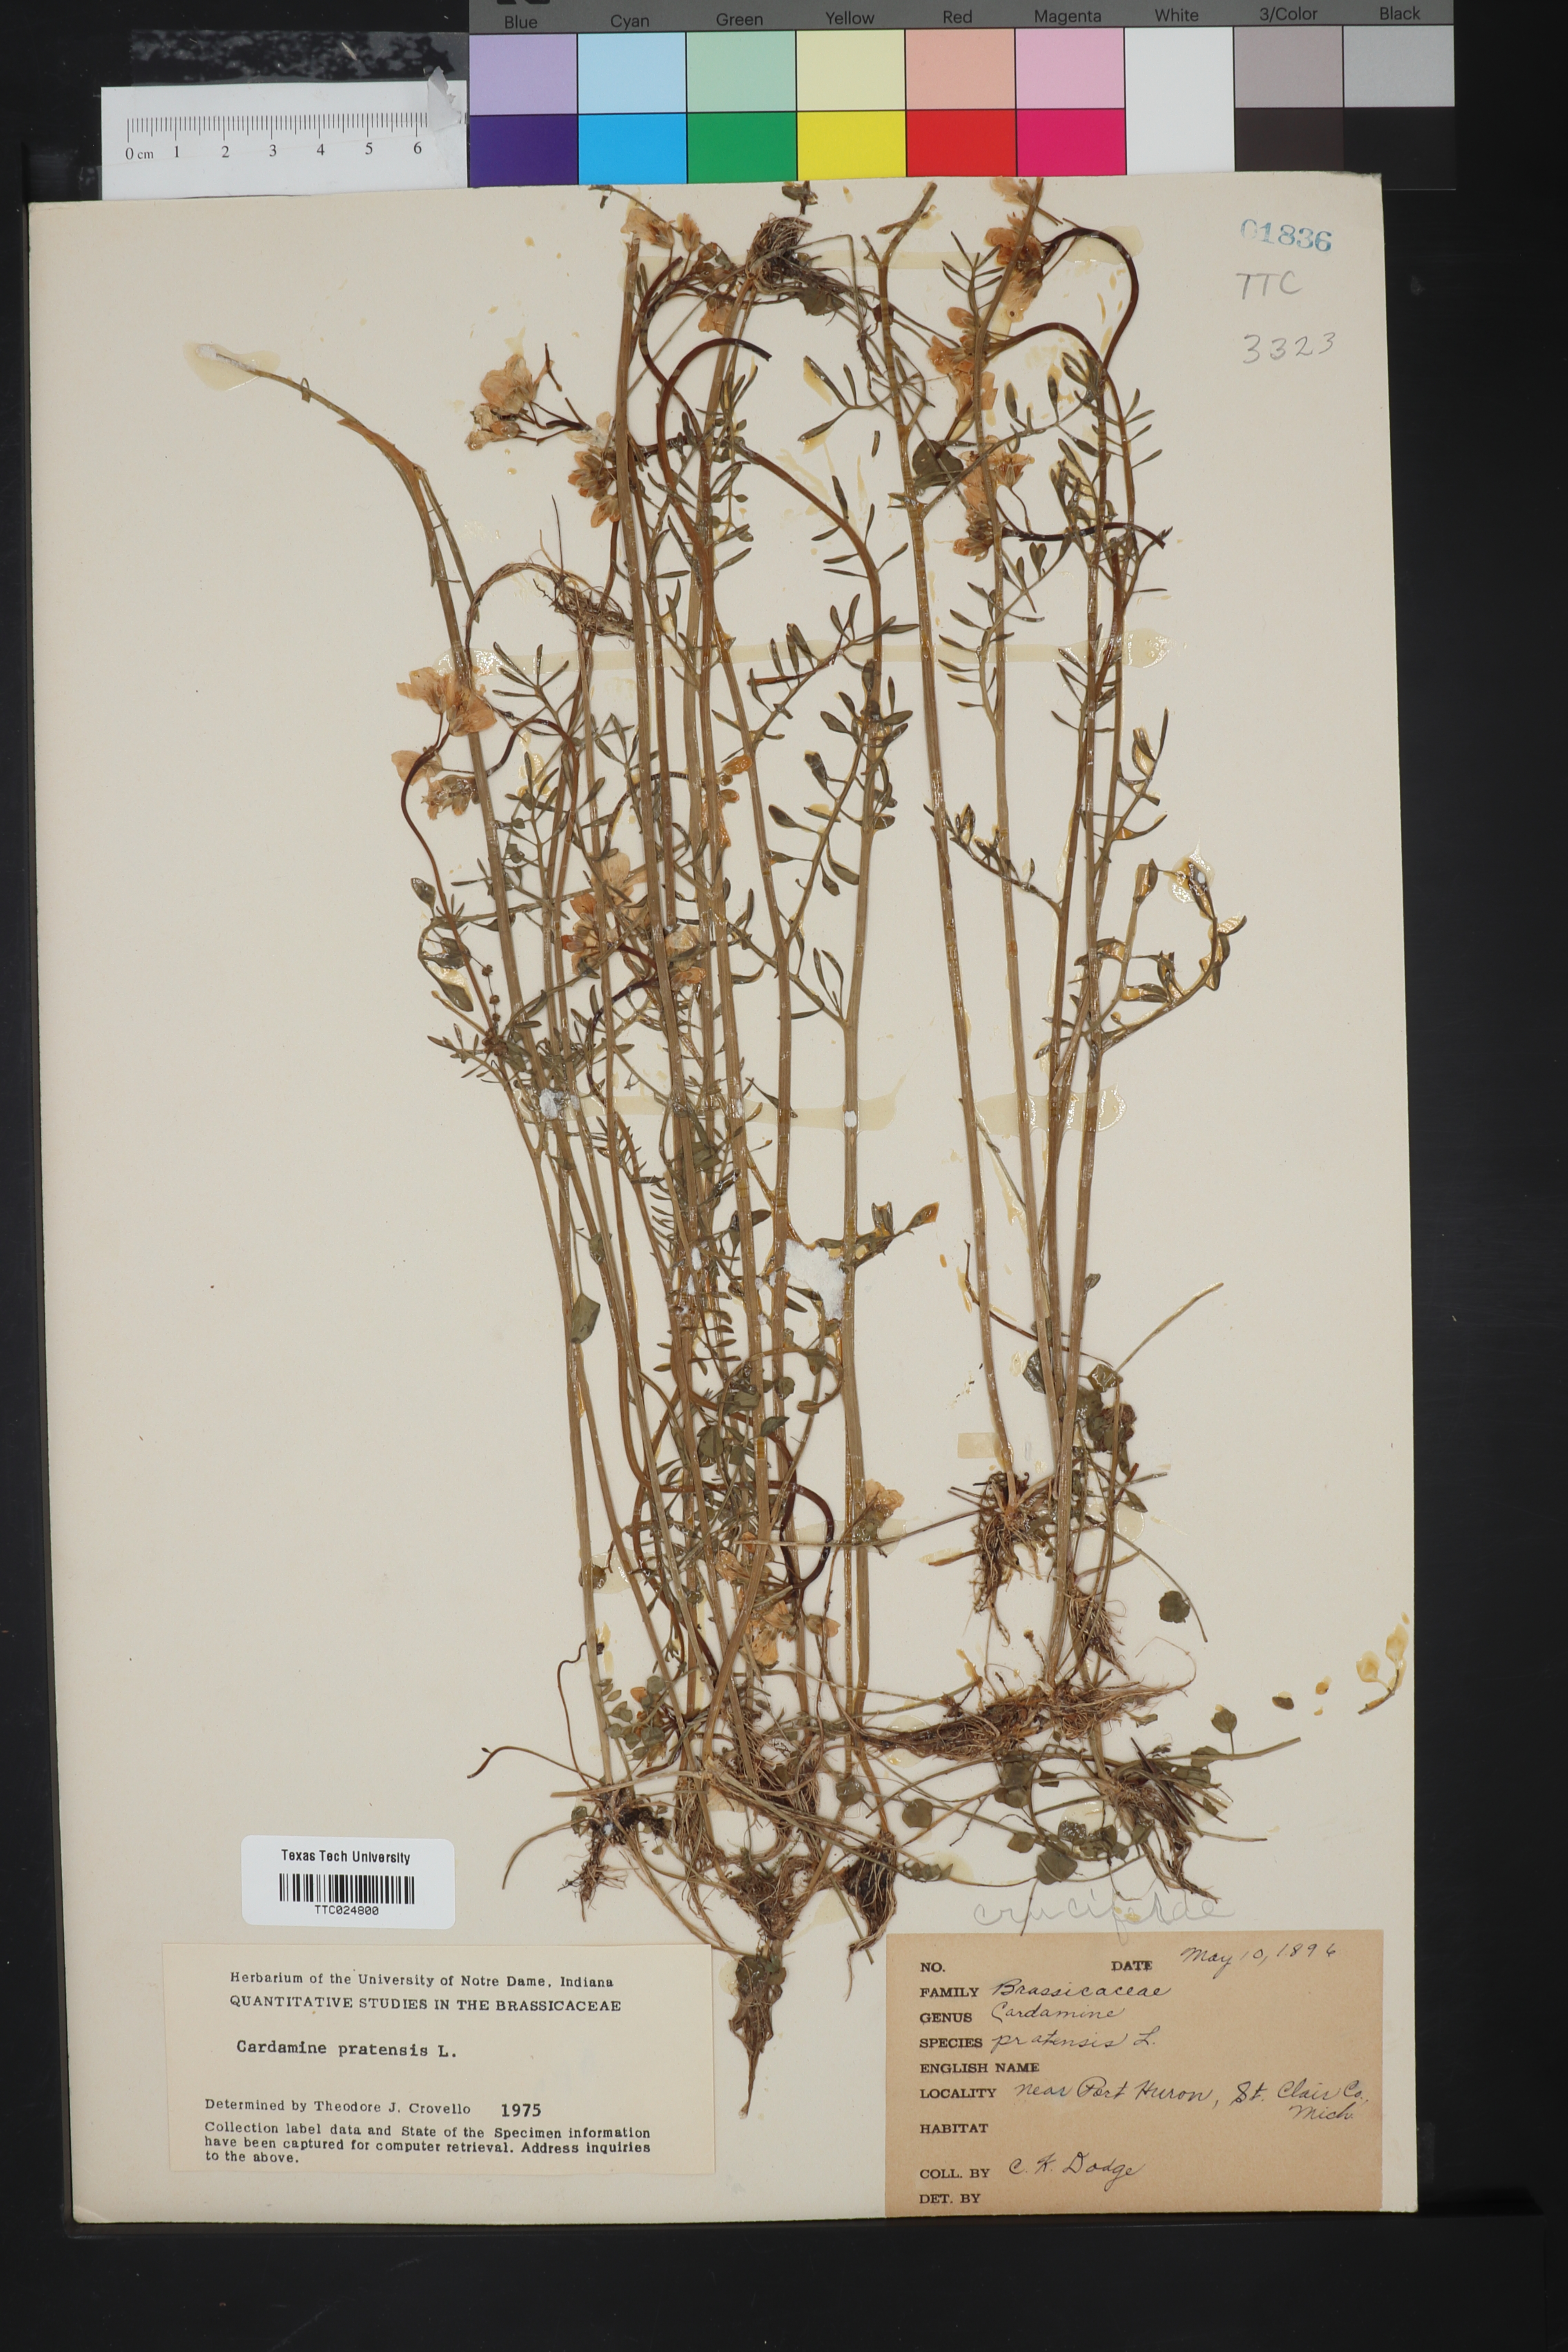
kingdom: Plantae
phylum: Tracheophyta
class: Magnoliopsida
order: Brassicales
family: Brassicaceae
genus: Cardamine
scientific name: Cardamine pratensis
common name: Cuckoo flower
